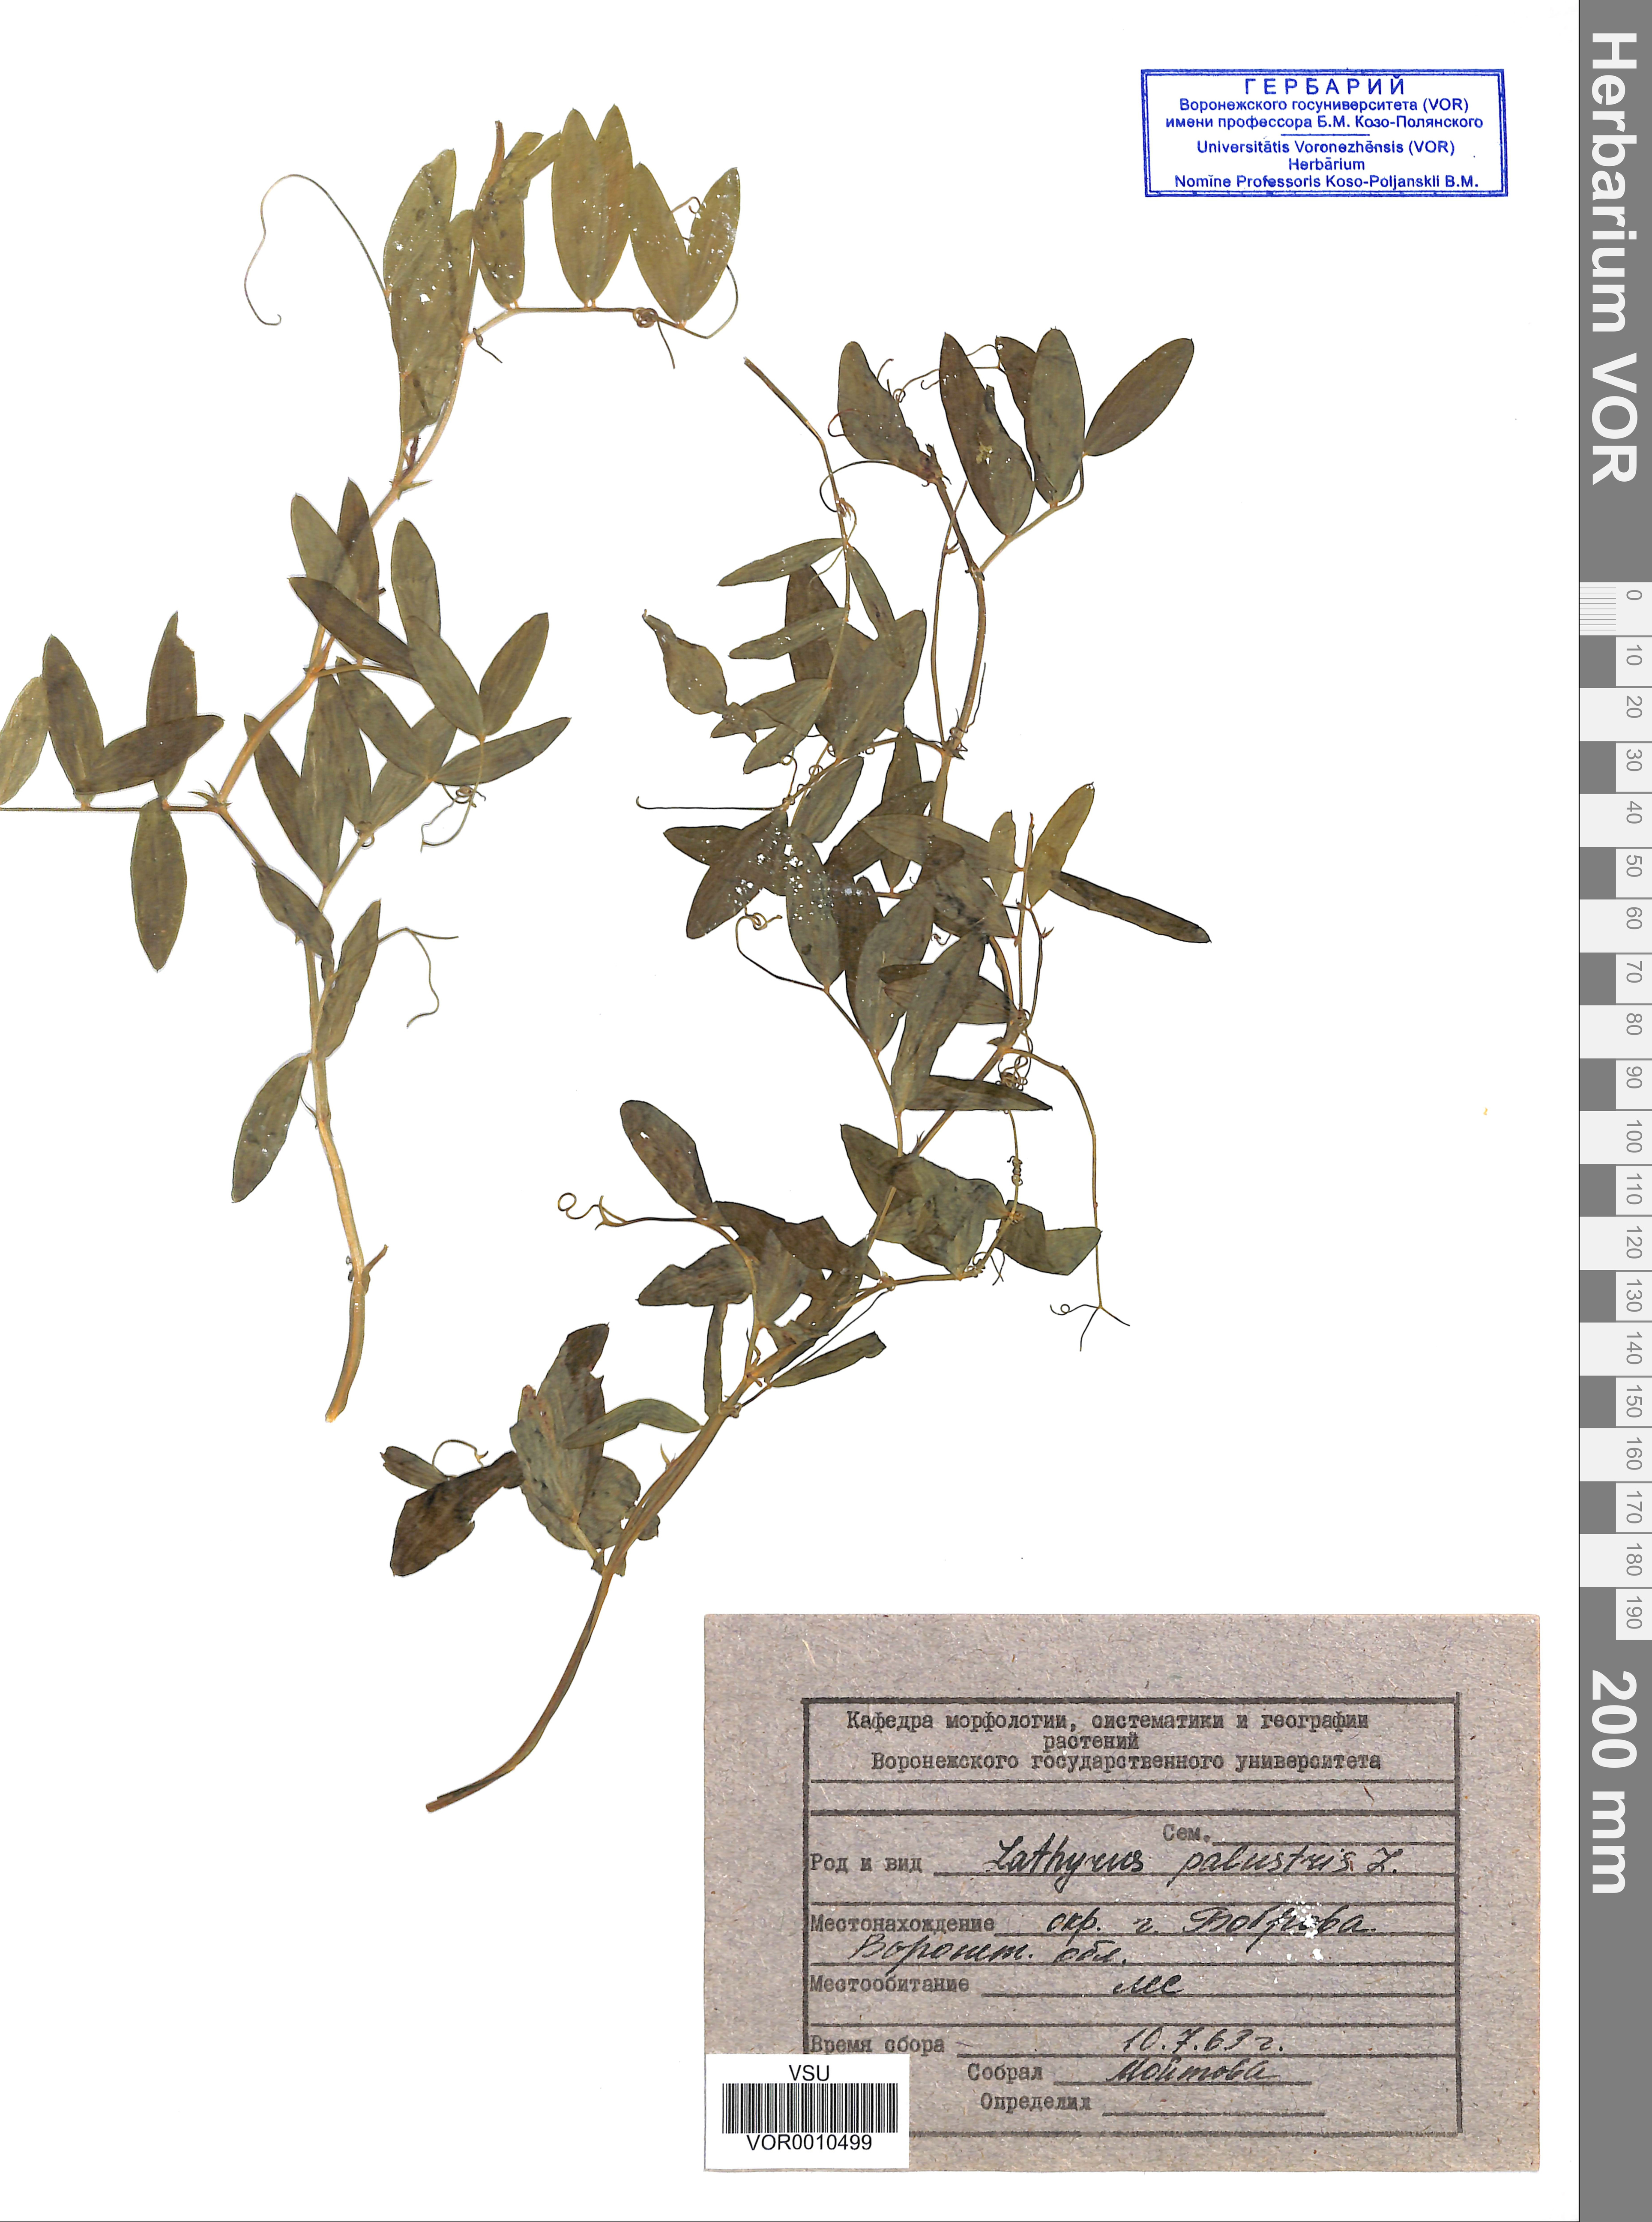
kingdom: Plantae
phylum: Tracheophyta
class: Magnoliopsida
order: Fabales
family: Fabaceae
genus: Lathyrus
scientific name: Lathyrus palustris
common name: Marsh pea
